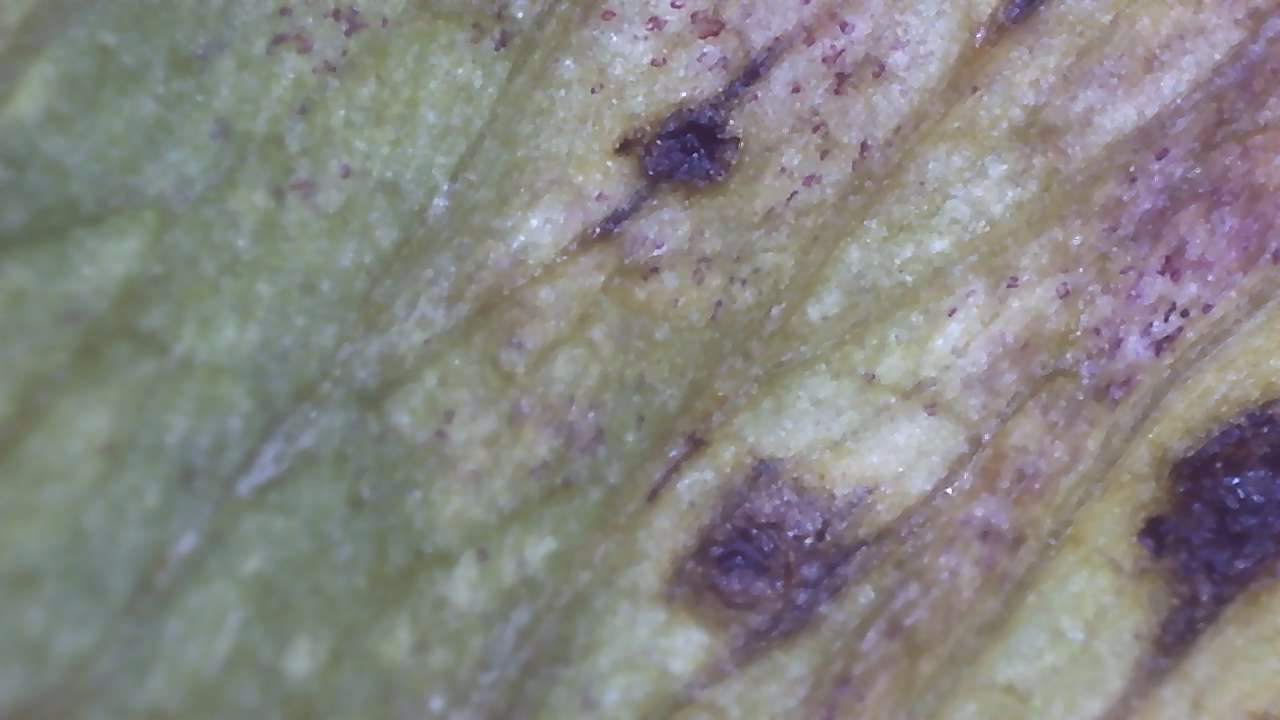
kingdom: Fungi
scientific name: Fungi
